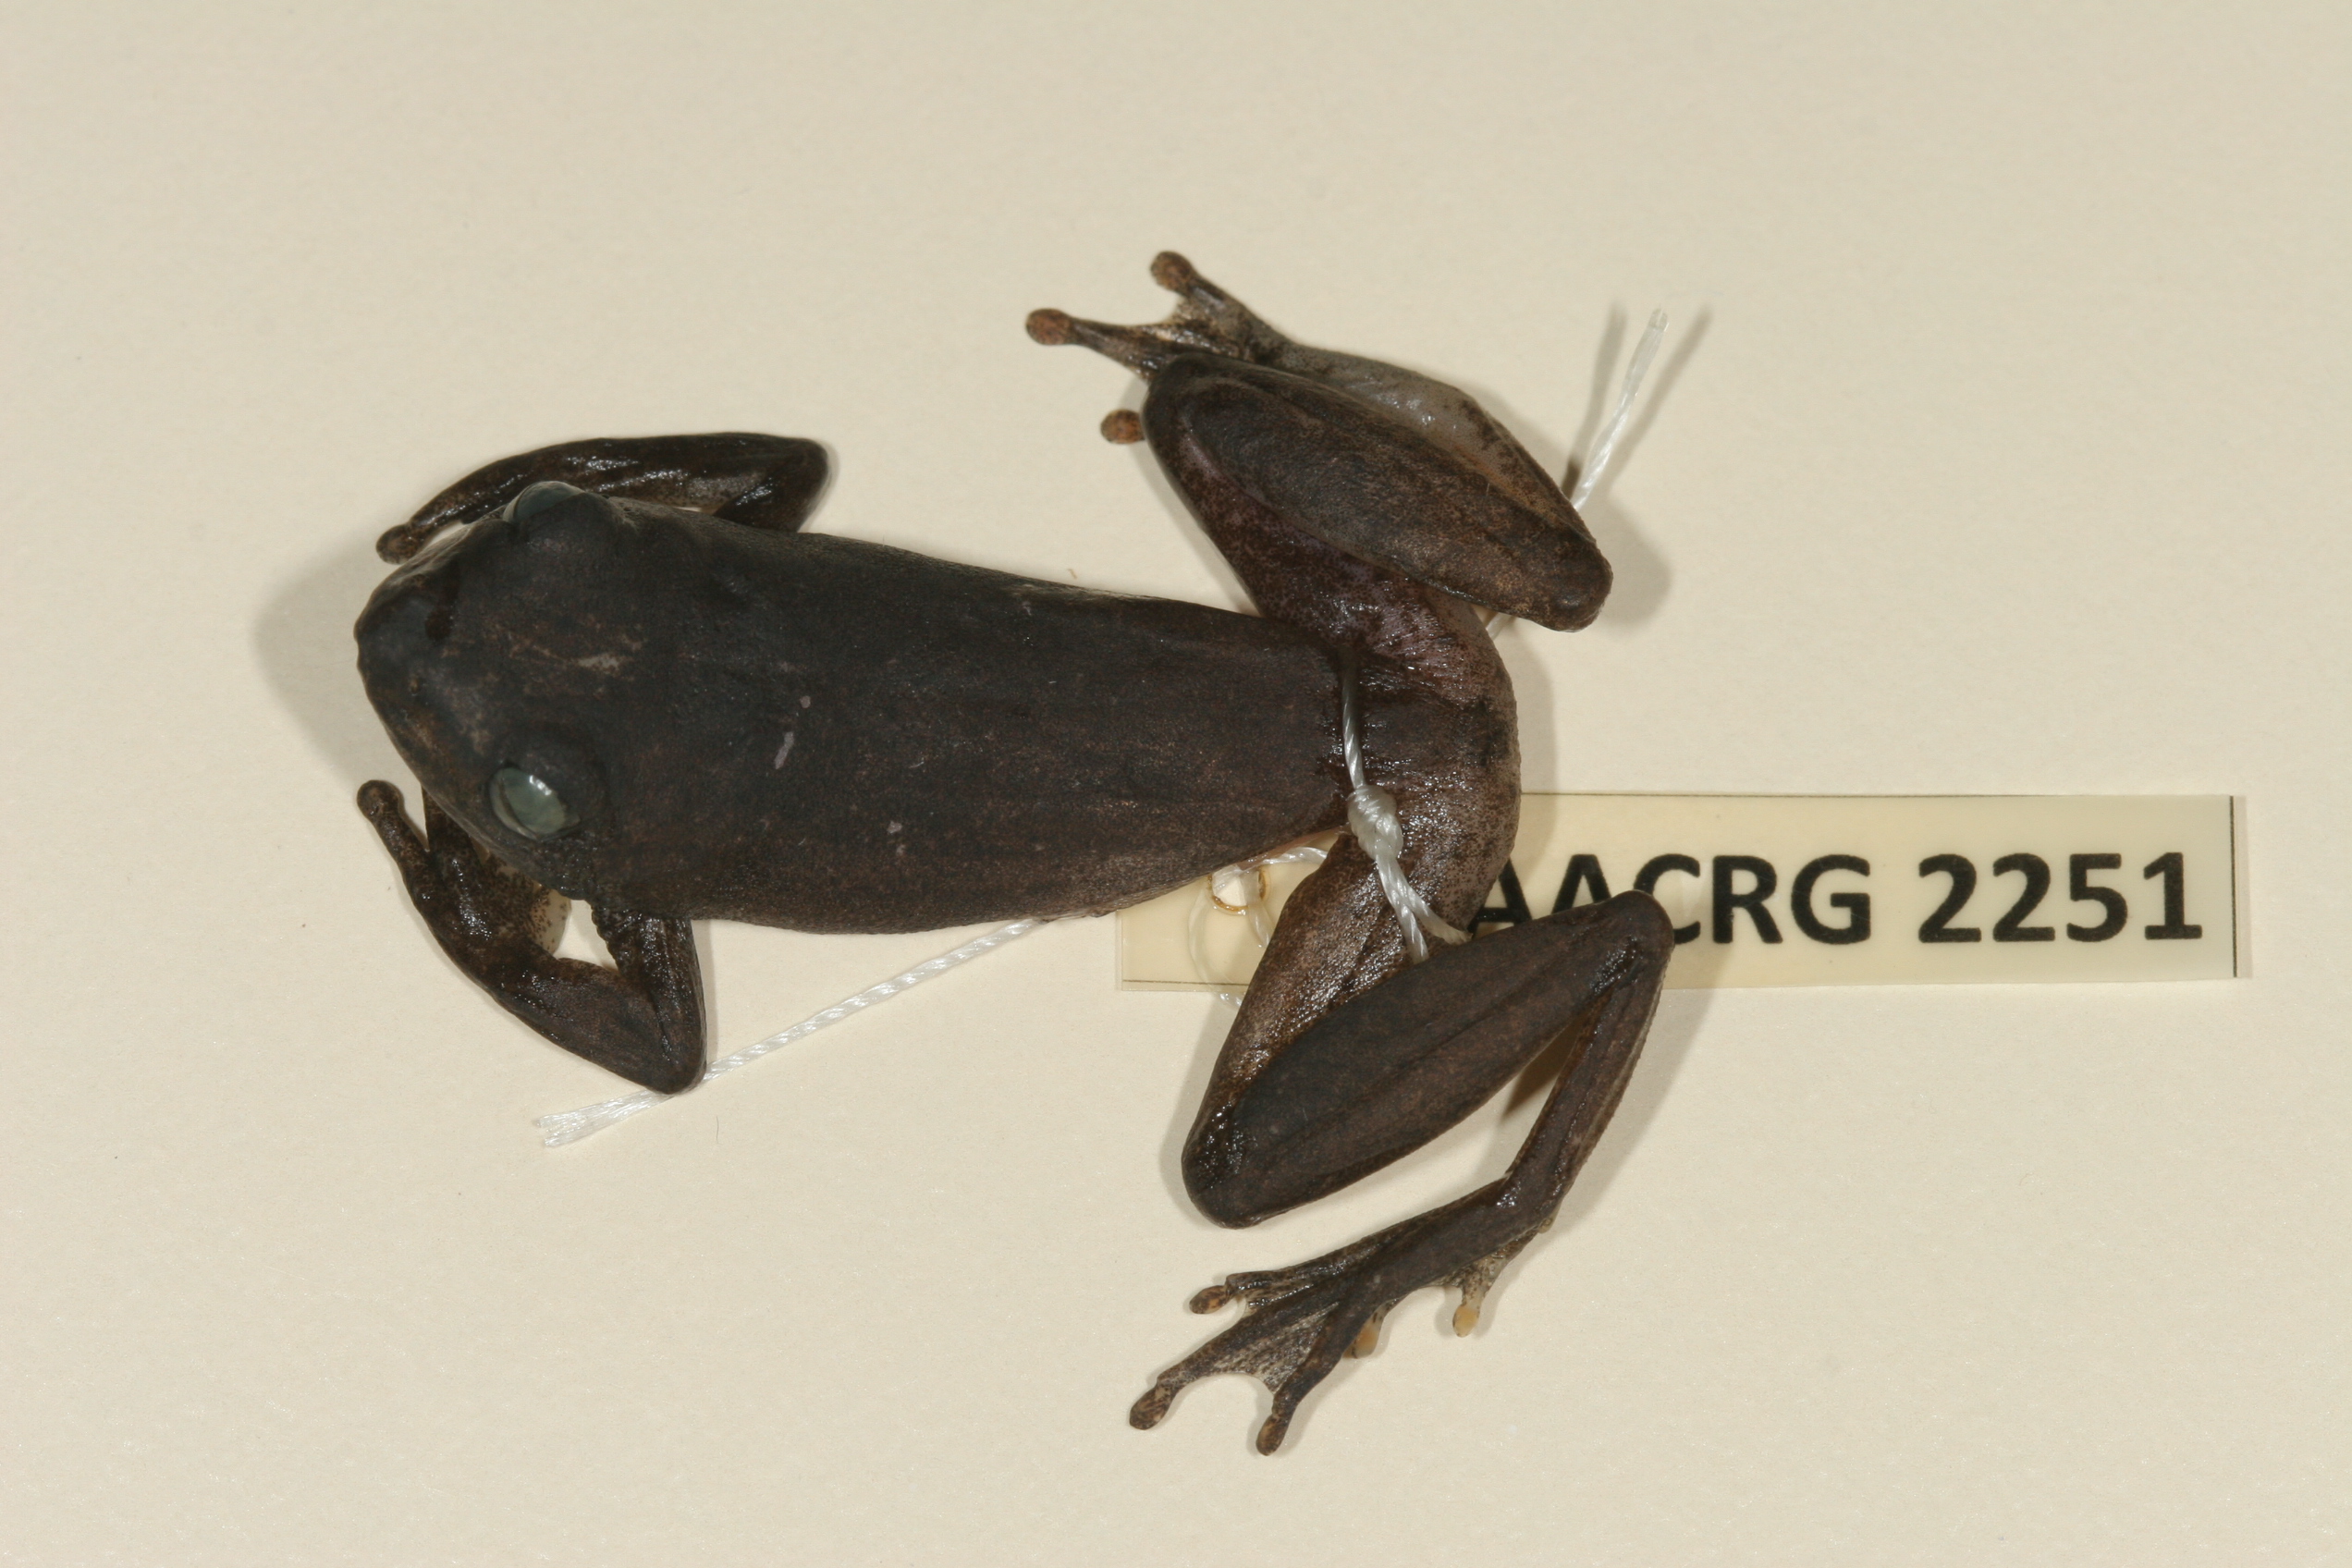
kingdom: Animalia
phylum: Chordata
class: Amphibia
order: Anura
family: Hyperoliidae
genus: Hyperolius
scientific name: Hyperolius argus
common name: Argus reed frog
